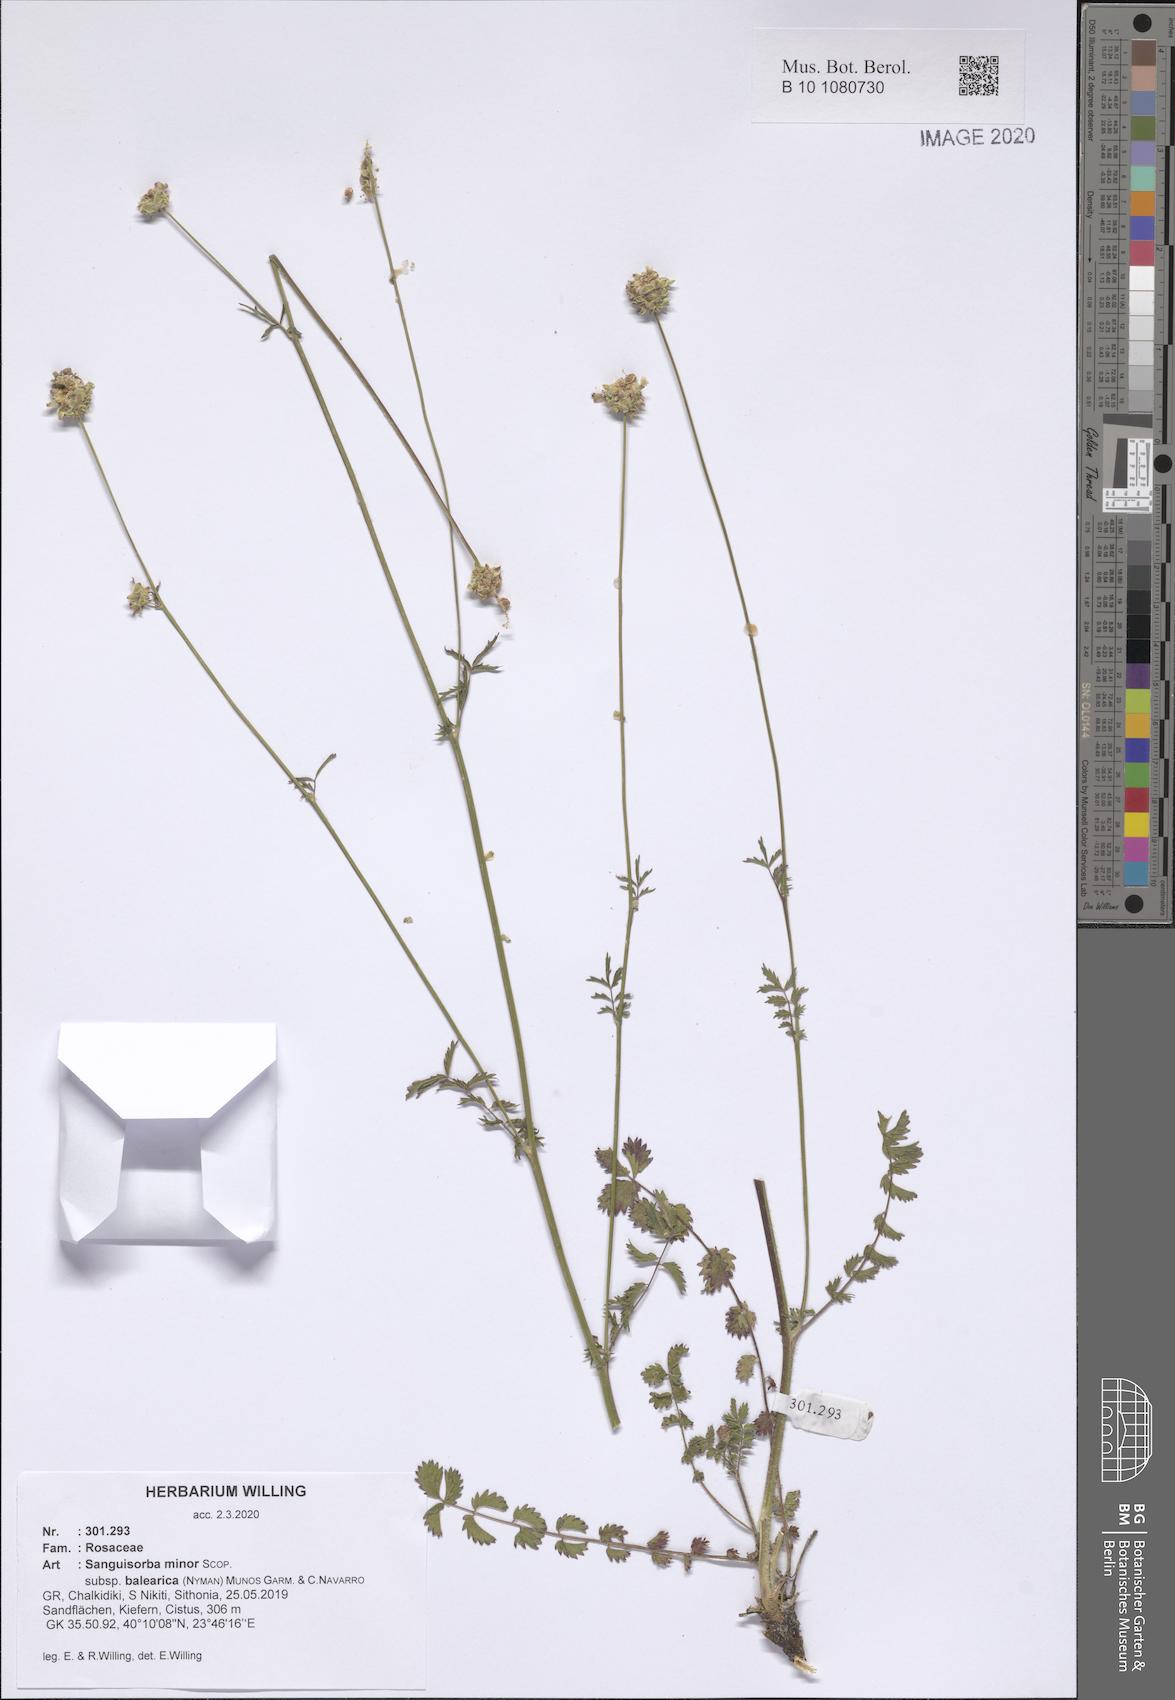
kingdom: Plantae
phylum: Tracheophyta
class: Magnoliopsida
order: Rosales
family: Rosaceae
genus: Poterium
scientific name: Poterium sanguisorba
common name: Salad burnet
